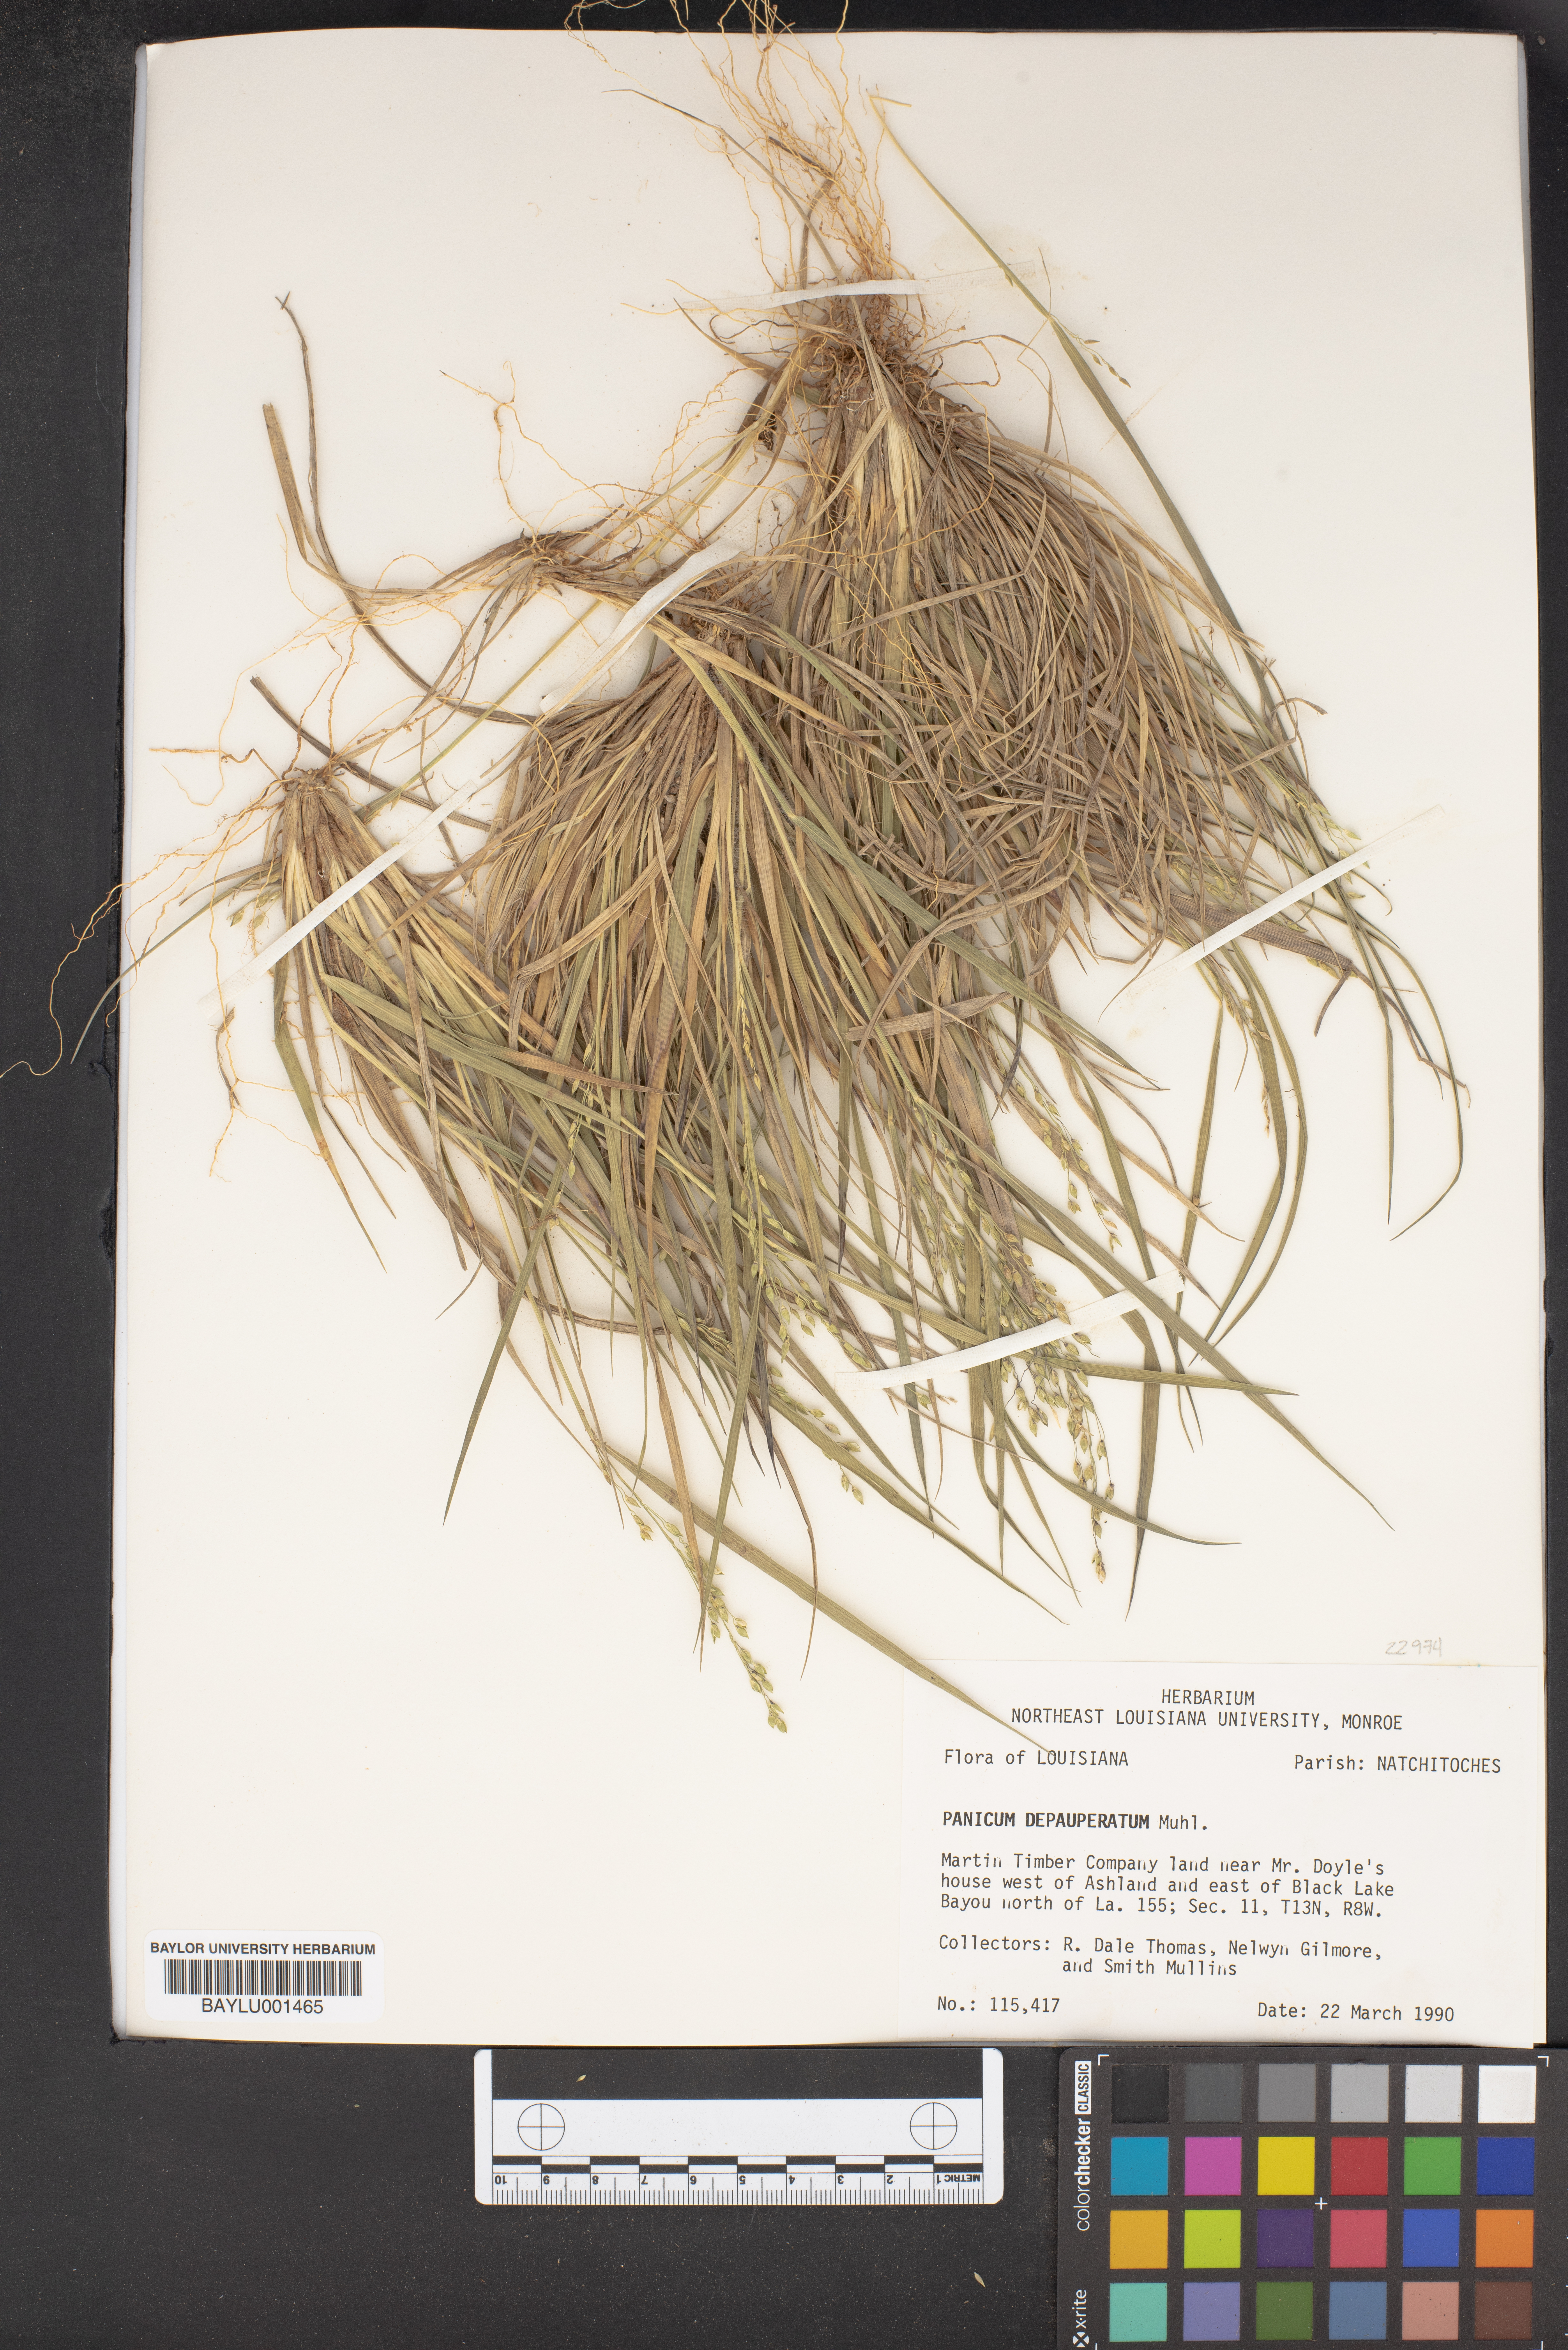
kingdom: Plantae
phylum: Tracheophyta
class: Liliopsida
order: Poales
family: Poaceae
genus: Dichanthelium
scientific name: Dichanthelium depauperatum
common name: Depauperate panicgrass
